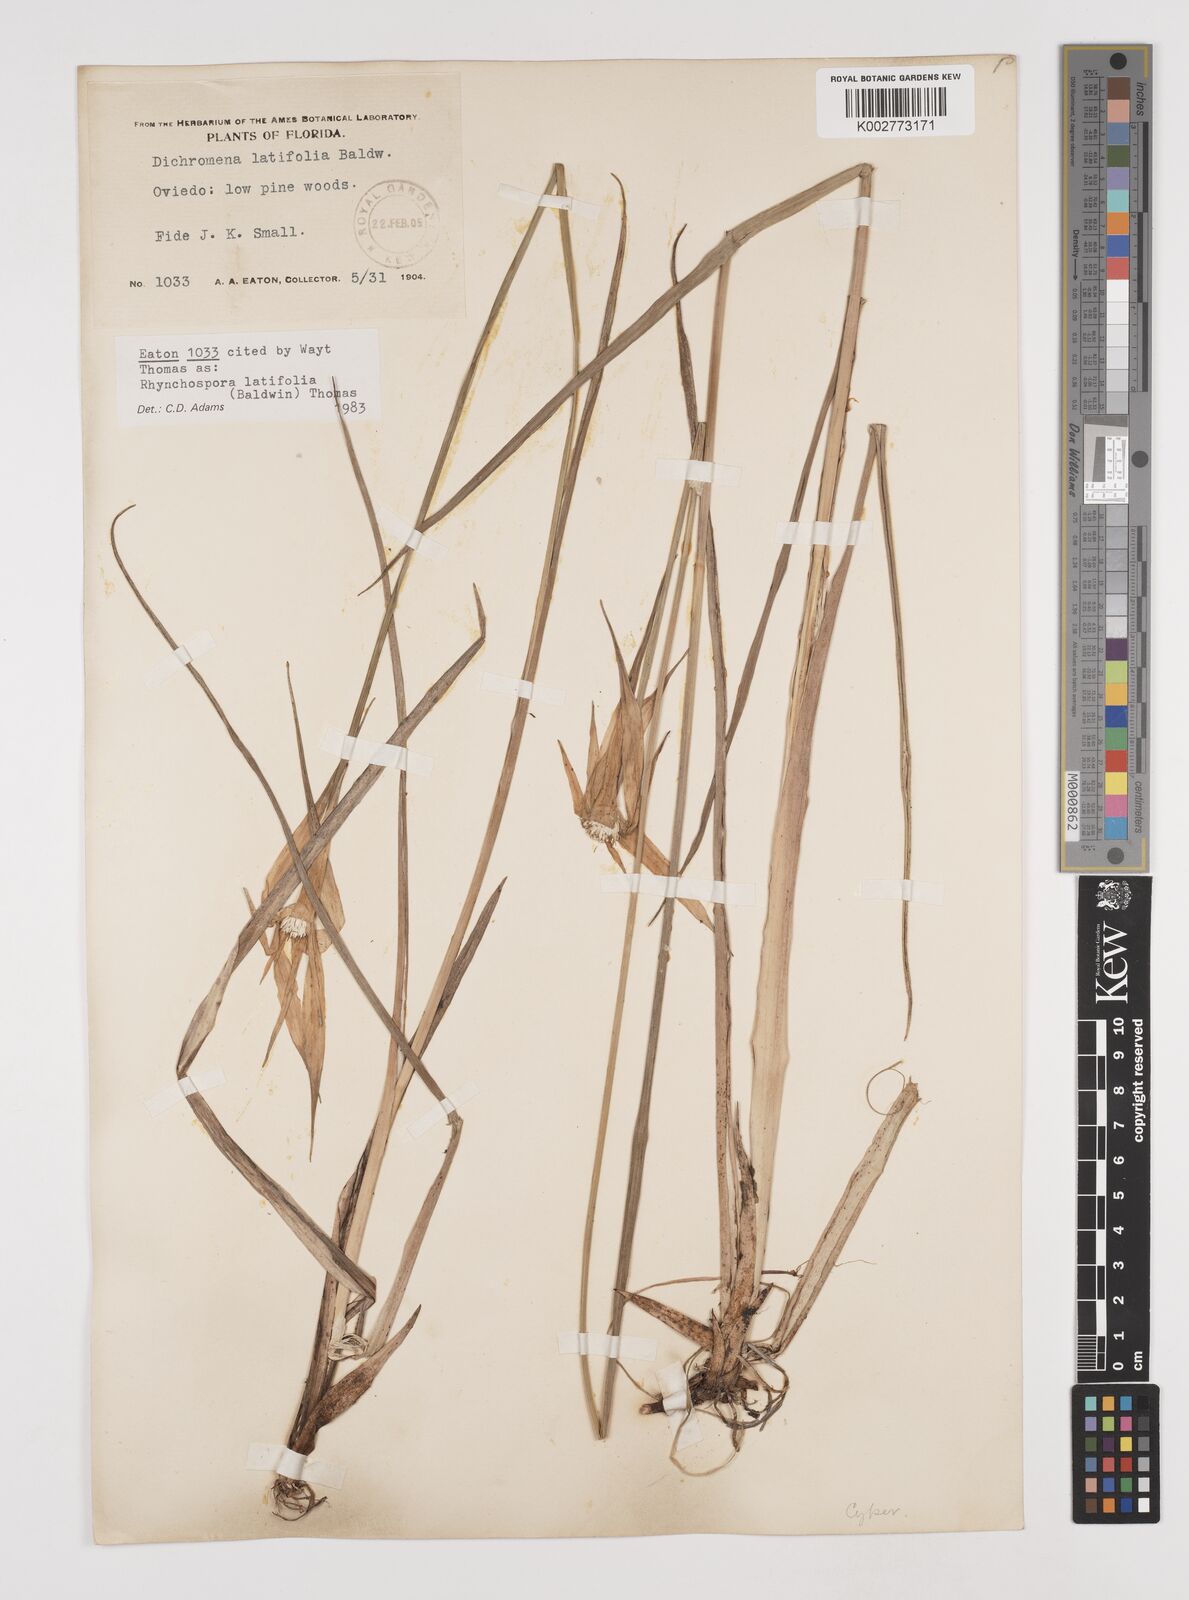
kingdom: Plantae
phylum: Tracheophyta
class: Liliopsida
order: Poales
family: Cyperaceae
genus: Rhynchospora
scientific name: Rhynchospora colorata
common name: Star sedge
